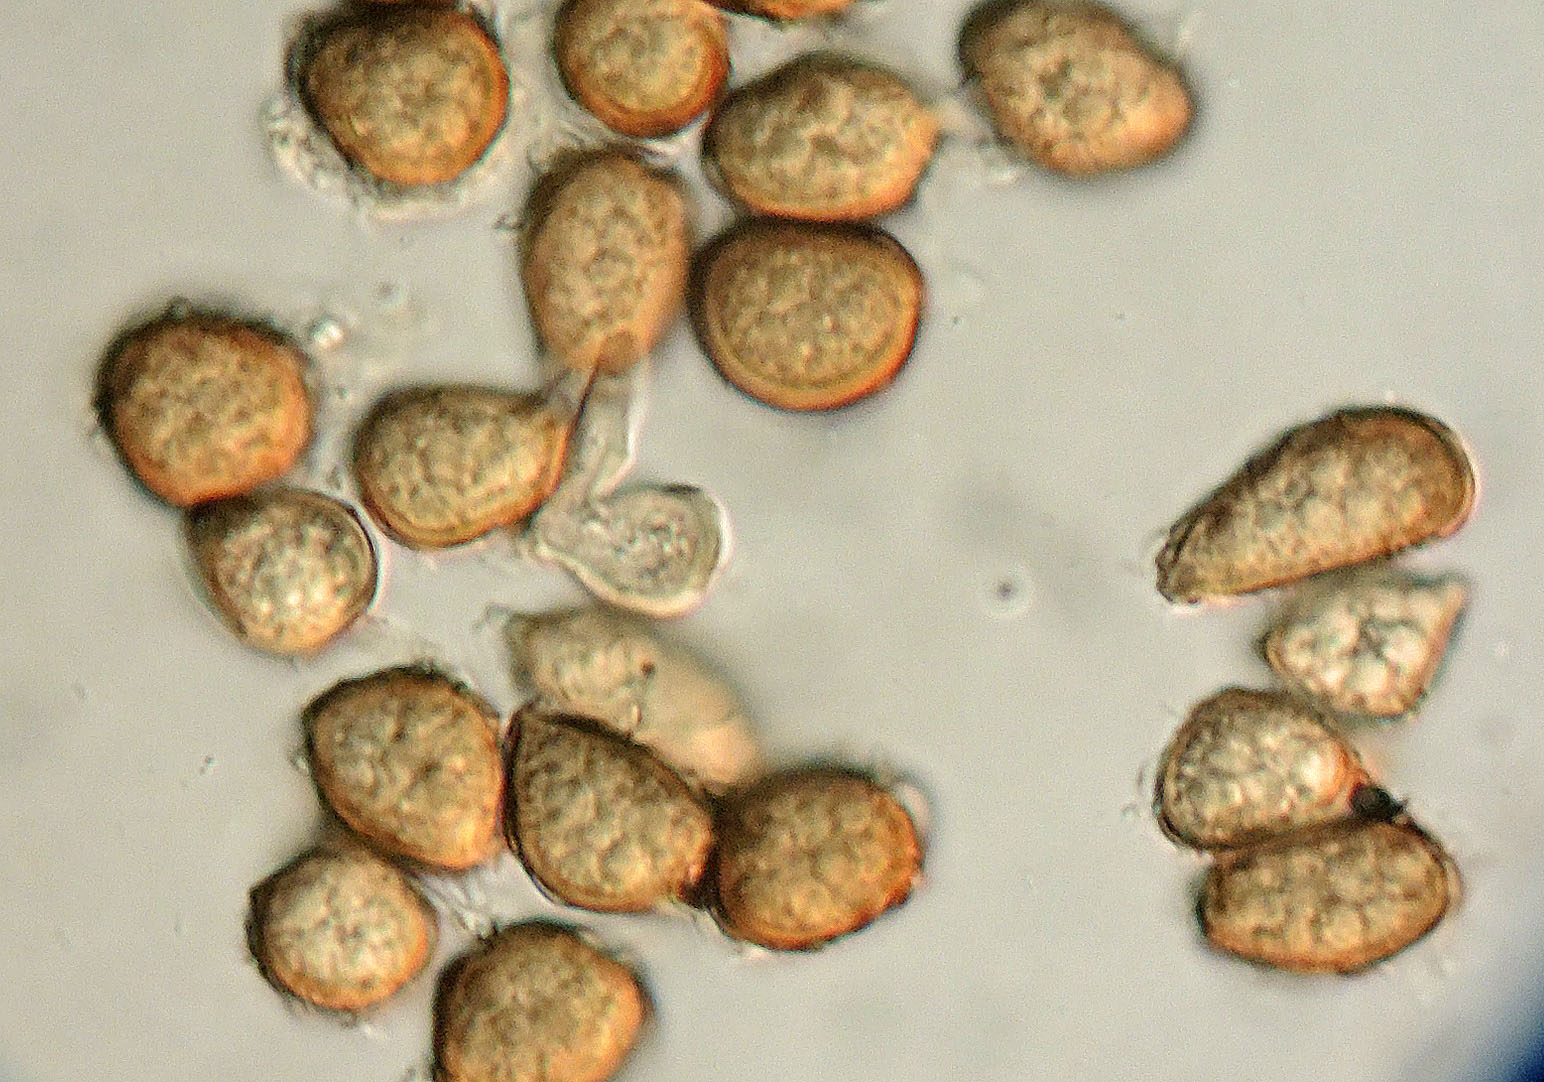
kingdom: Fungi
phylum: Basidiomycota
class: Ustilaginomycetes
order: Urocystidales
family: Urocystidaceae
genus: Vankya
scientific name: Vankya ornithogali
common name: Yellow star-of-bethlehem smut
